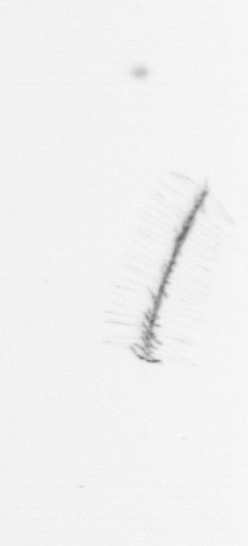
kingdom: Chromista
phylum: Ochrophyta
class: Bacillariophyceae
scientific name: Bacillariophyceae
